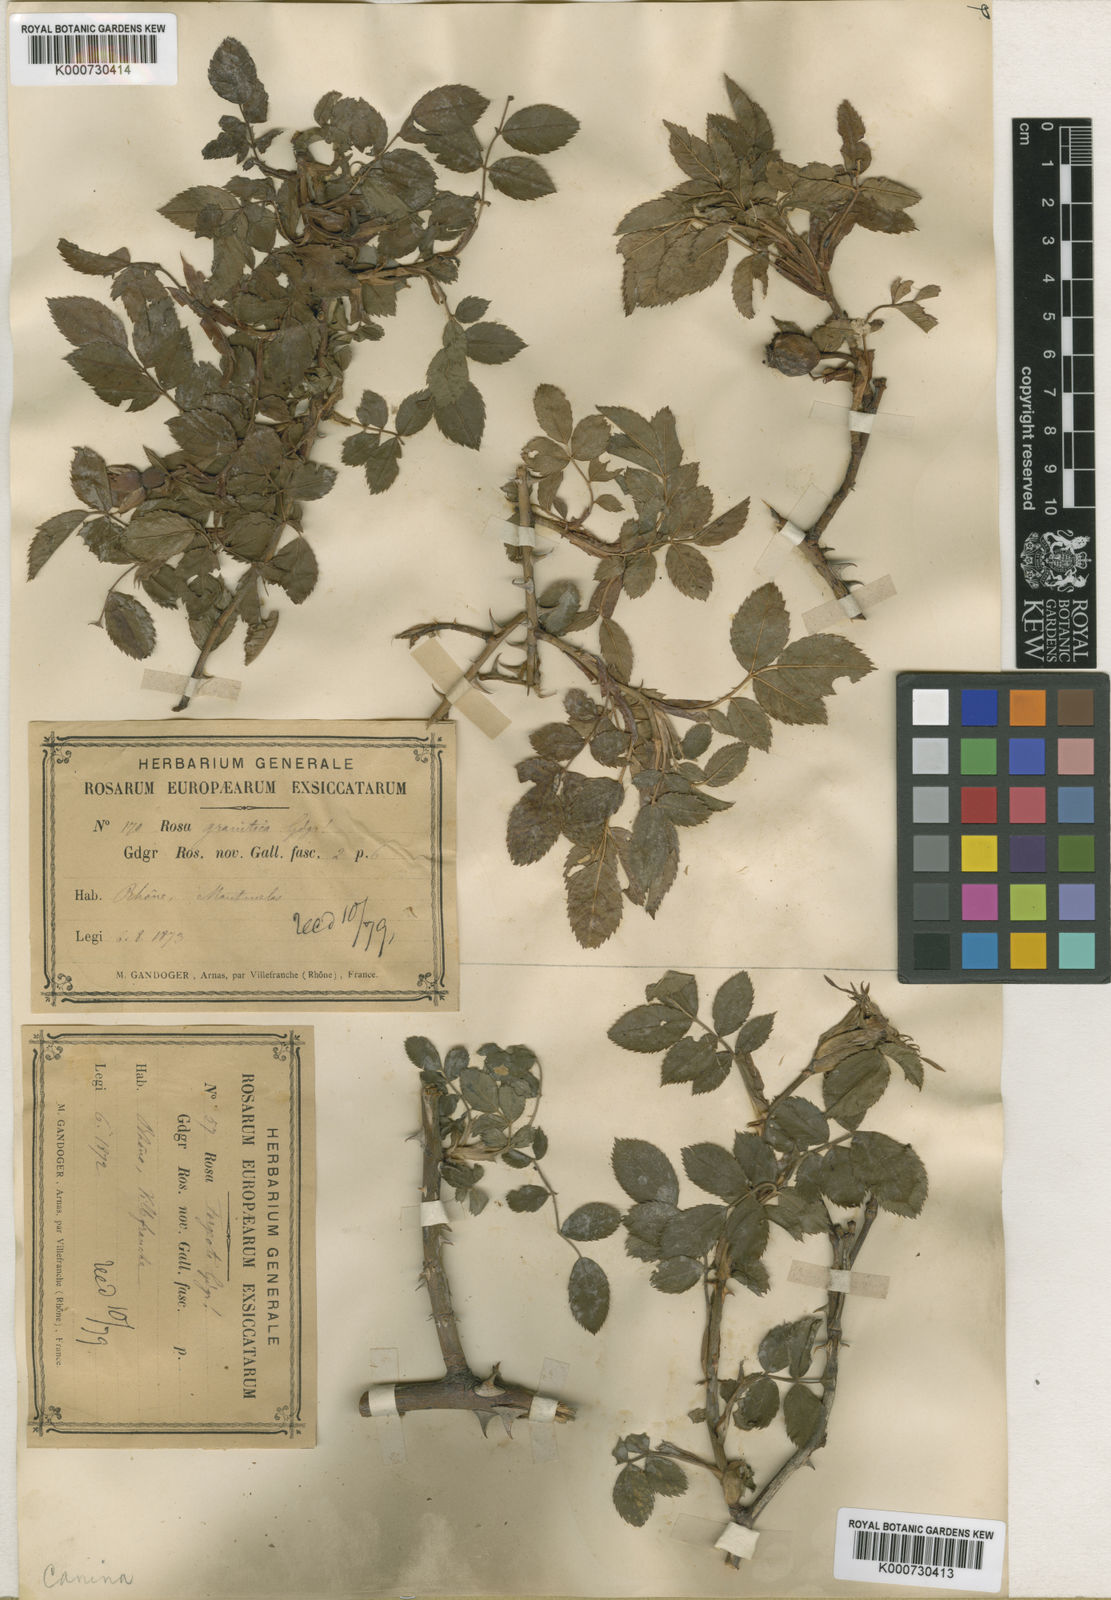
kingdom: Plantae
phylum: Tracheophyta
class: Magnoliopsida
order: Rosales
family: Rosaceae
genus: Rosa
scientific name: Rosa canina
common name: Dog rose
